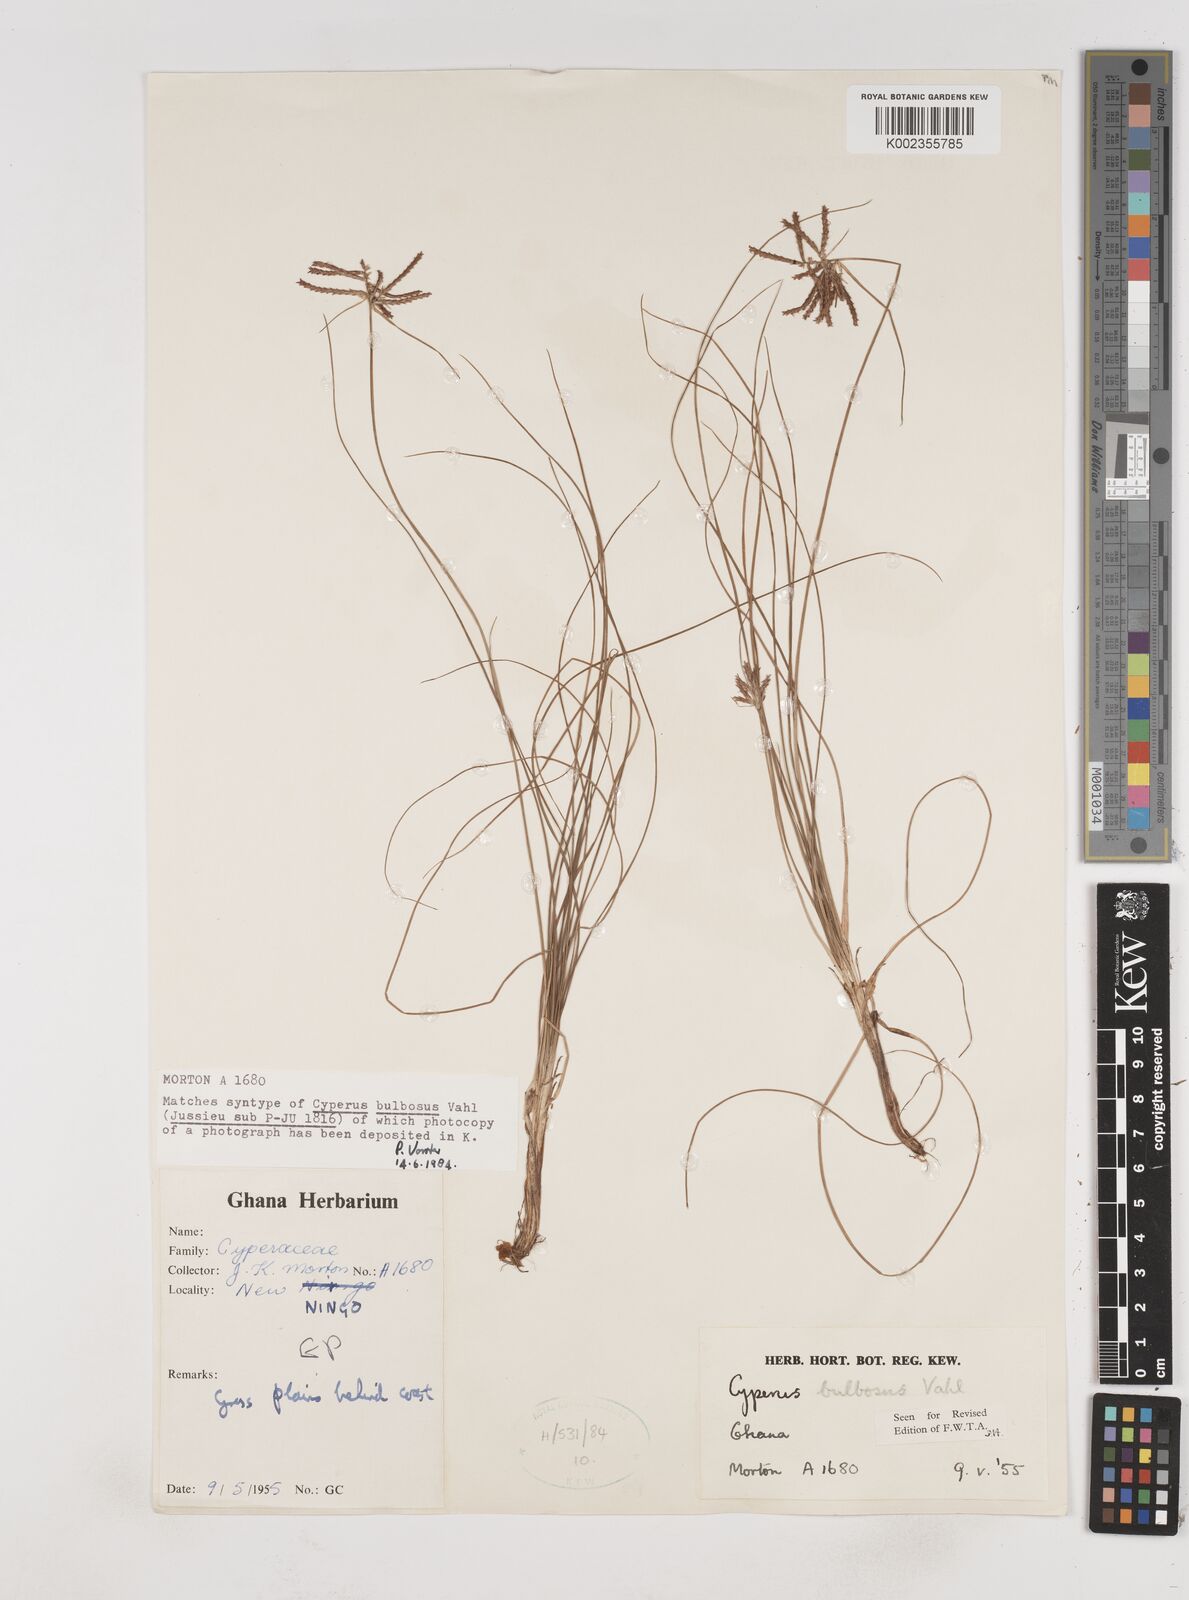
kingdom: Plantae
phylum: Tracheophyta
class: Liliopsida
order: Poales
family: Cyperaceae
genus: Cyperus
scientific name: Cyperus bulbosus
